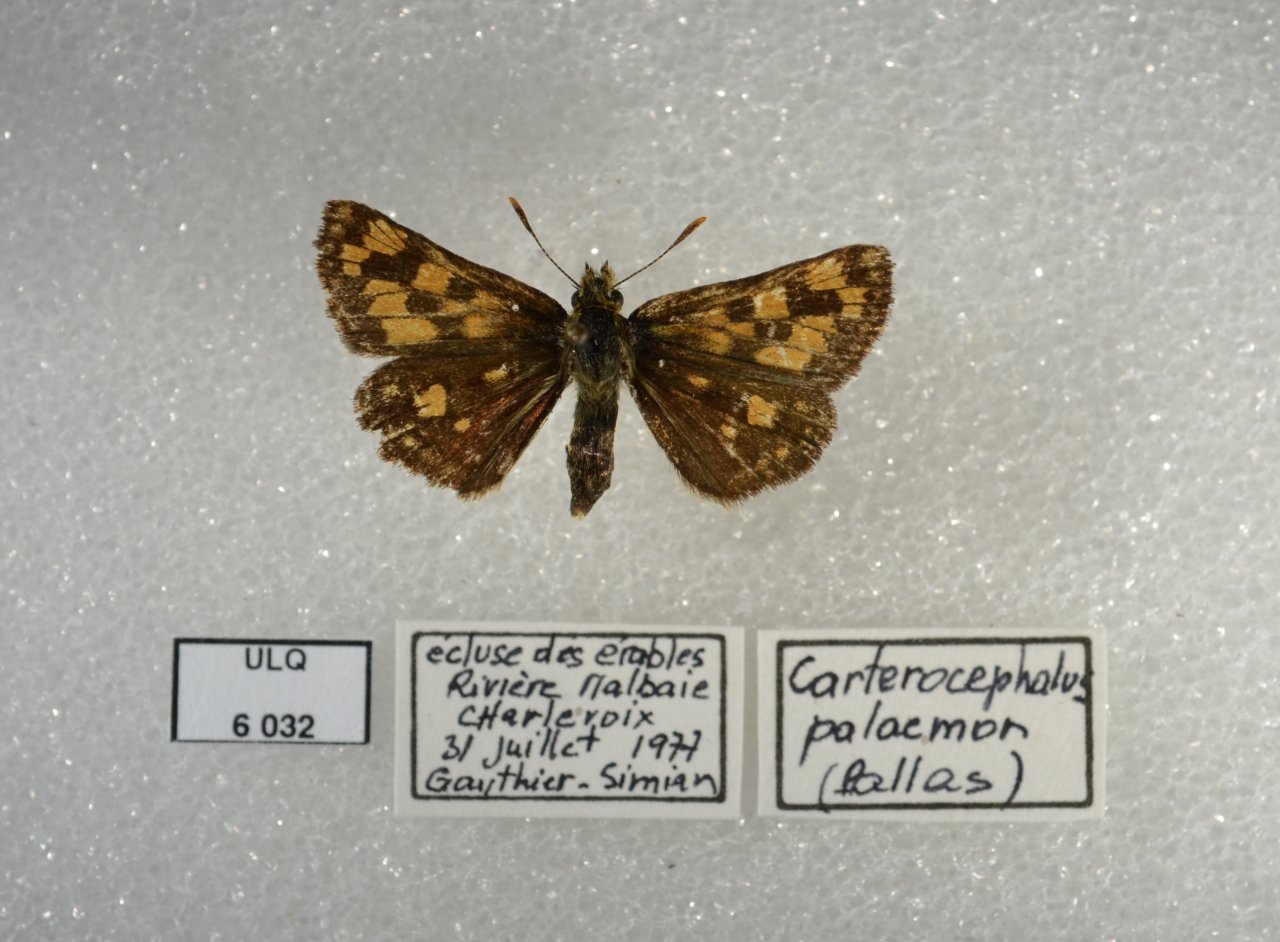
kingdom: Animalia
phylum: Arthropoda
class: Insecta
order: Lepidoptera
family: Hesperiidae
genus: Carterocephalus
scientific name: Carterocephalus palaemon
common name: Chequered Skipper
